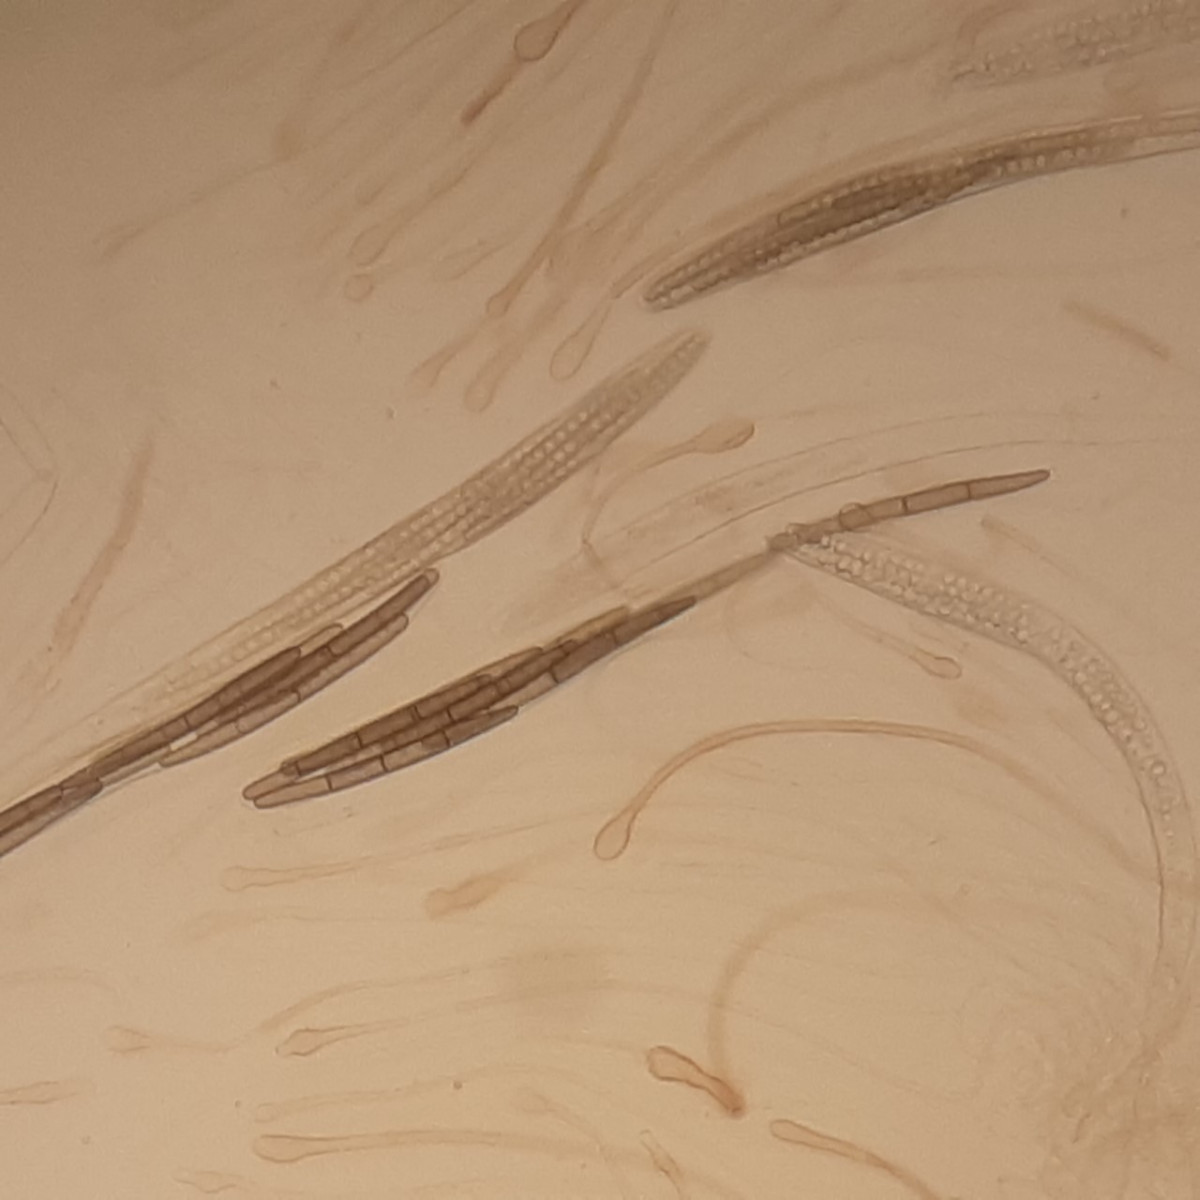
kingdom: Fungi
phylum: Ascomycota
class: Geoglossomycetes
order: Geoglossales
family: Geoglossaceae
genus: Glutinoglossum
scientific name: Glutinoglossum glutinosum
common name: slimet jordtunge
